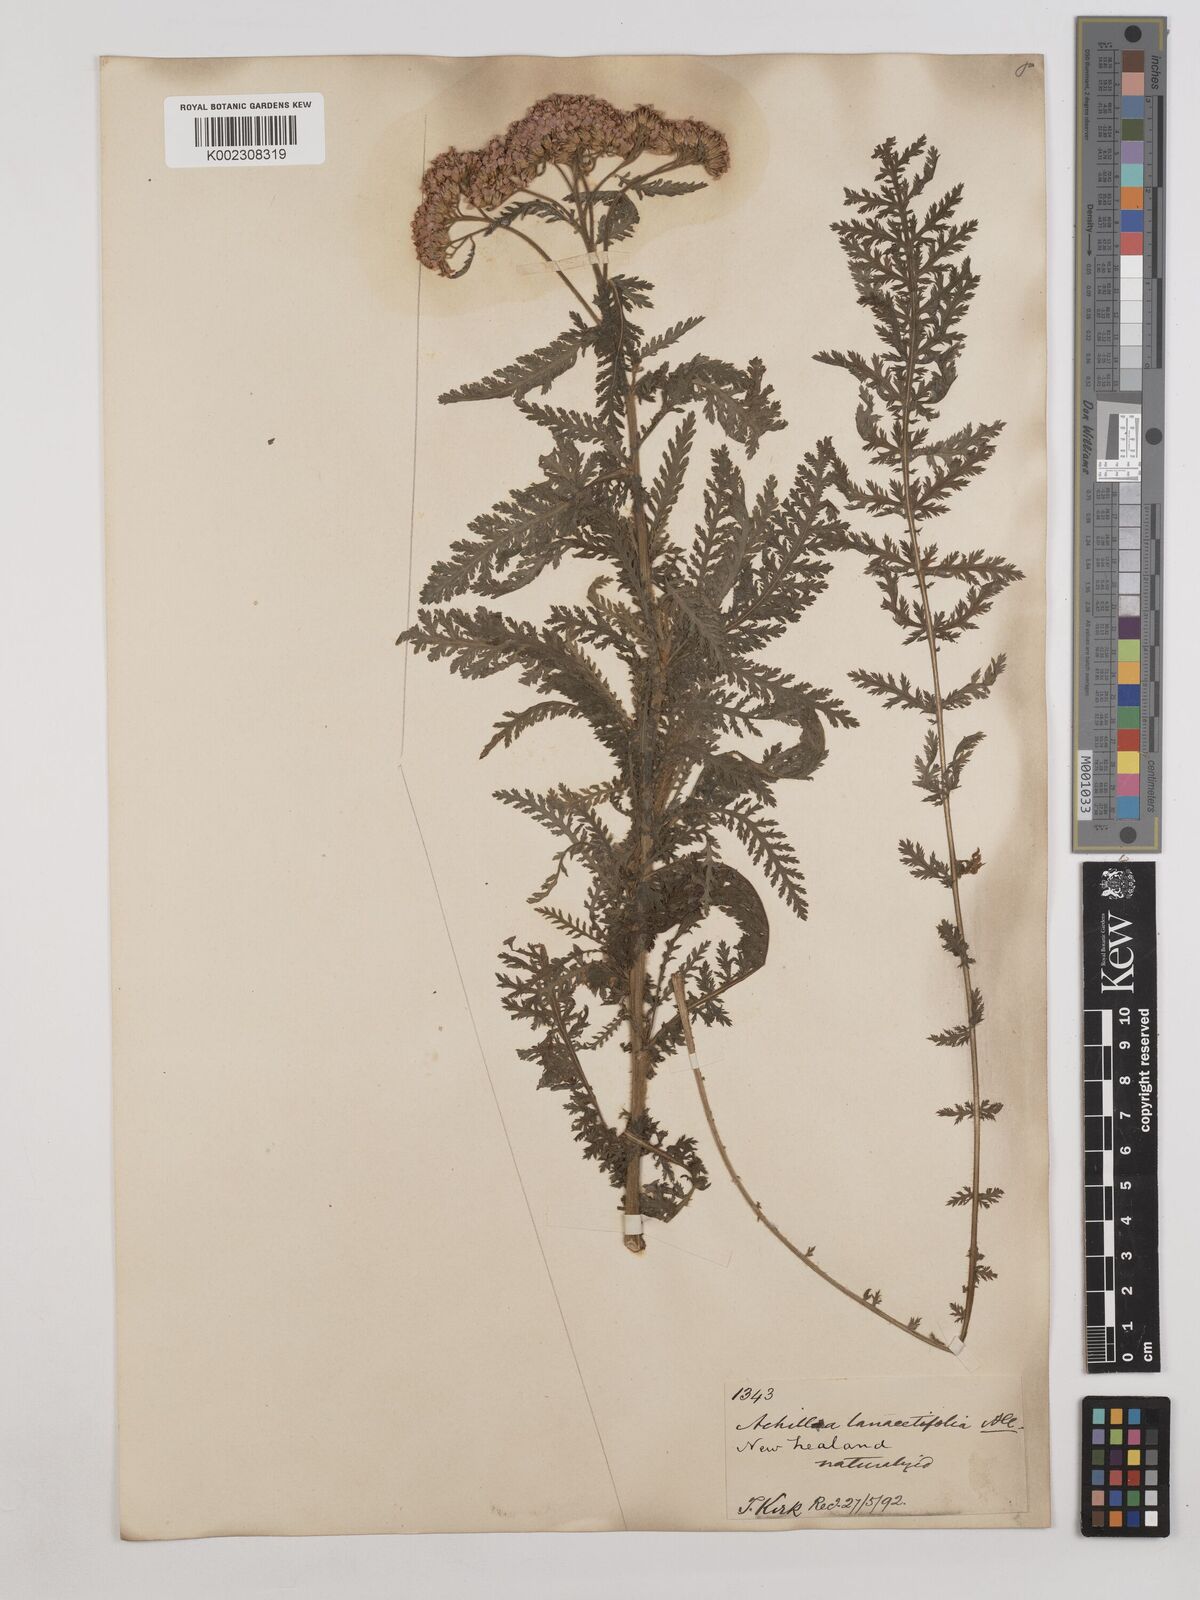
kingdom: Plantae
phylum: Tracheophyta
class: Magnoliopsida
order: Asterales
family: Asteraceae
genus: Achillea
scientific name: Achillea millefolium
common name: Yarrow
